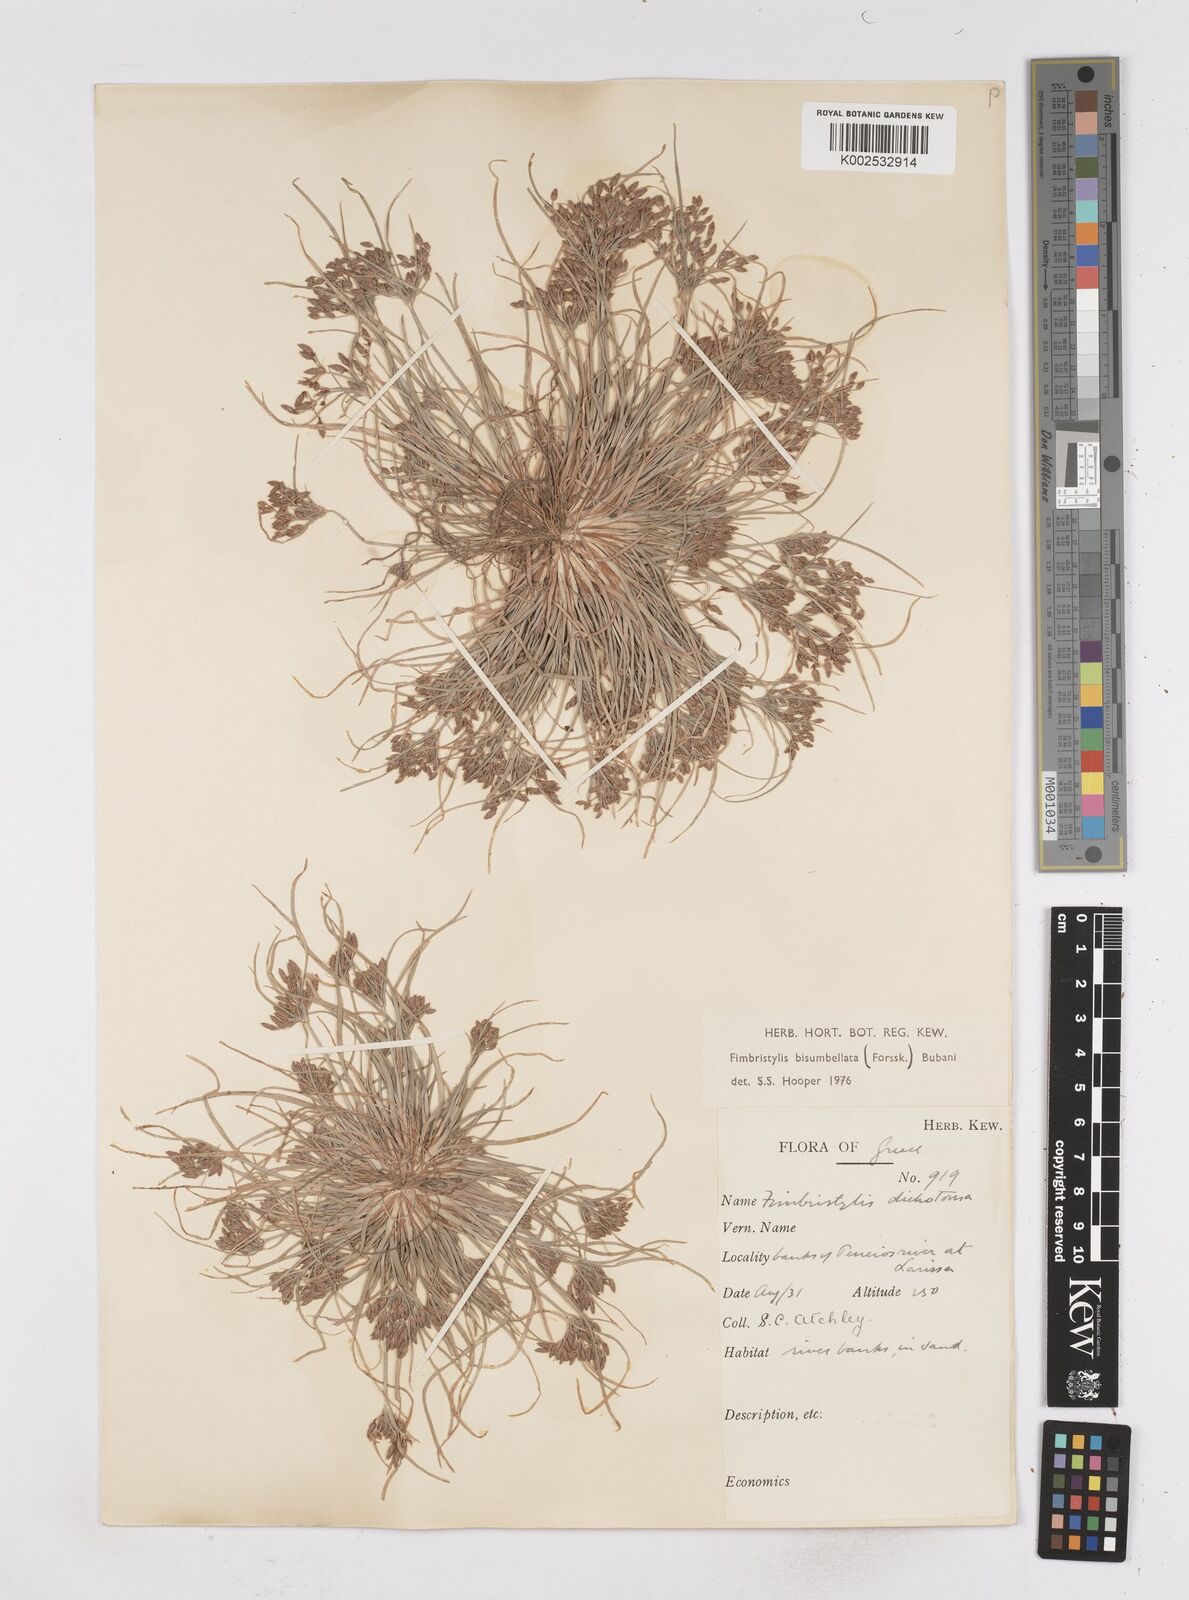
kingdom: Plantae
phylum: Tracheophyta
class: Liliopsida
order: Poales
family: Cyperaceae
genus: Fimbristylis
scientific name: Fimbristylis bisumbellata
